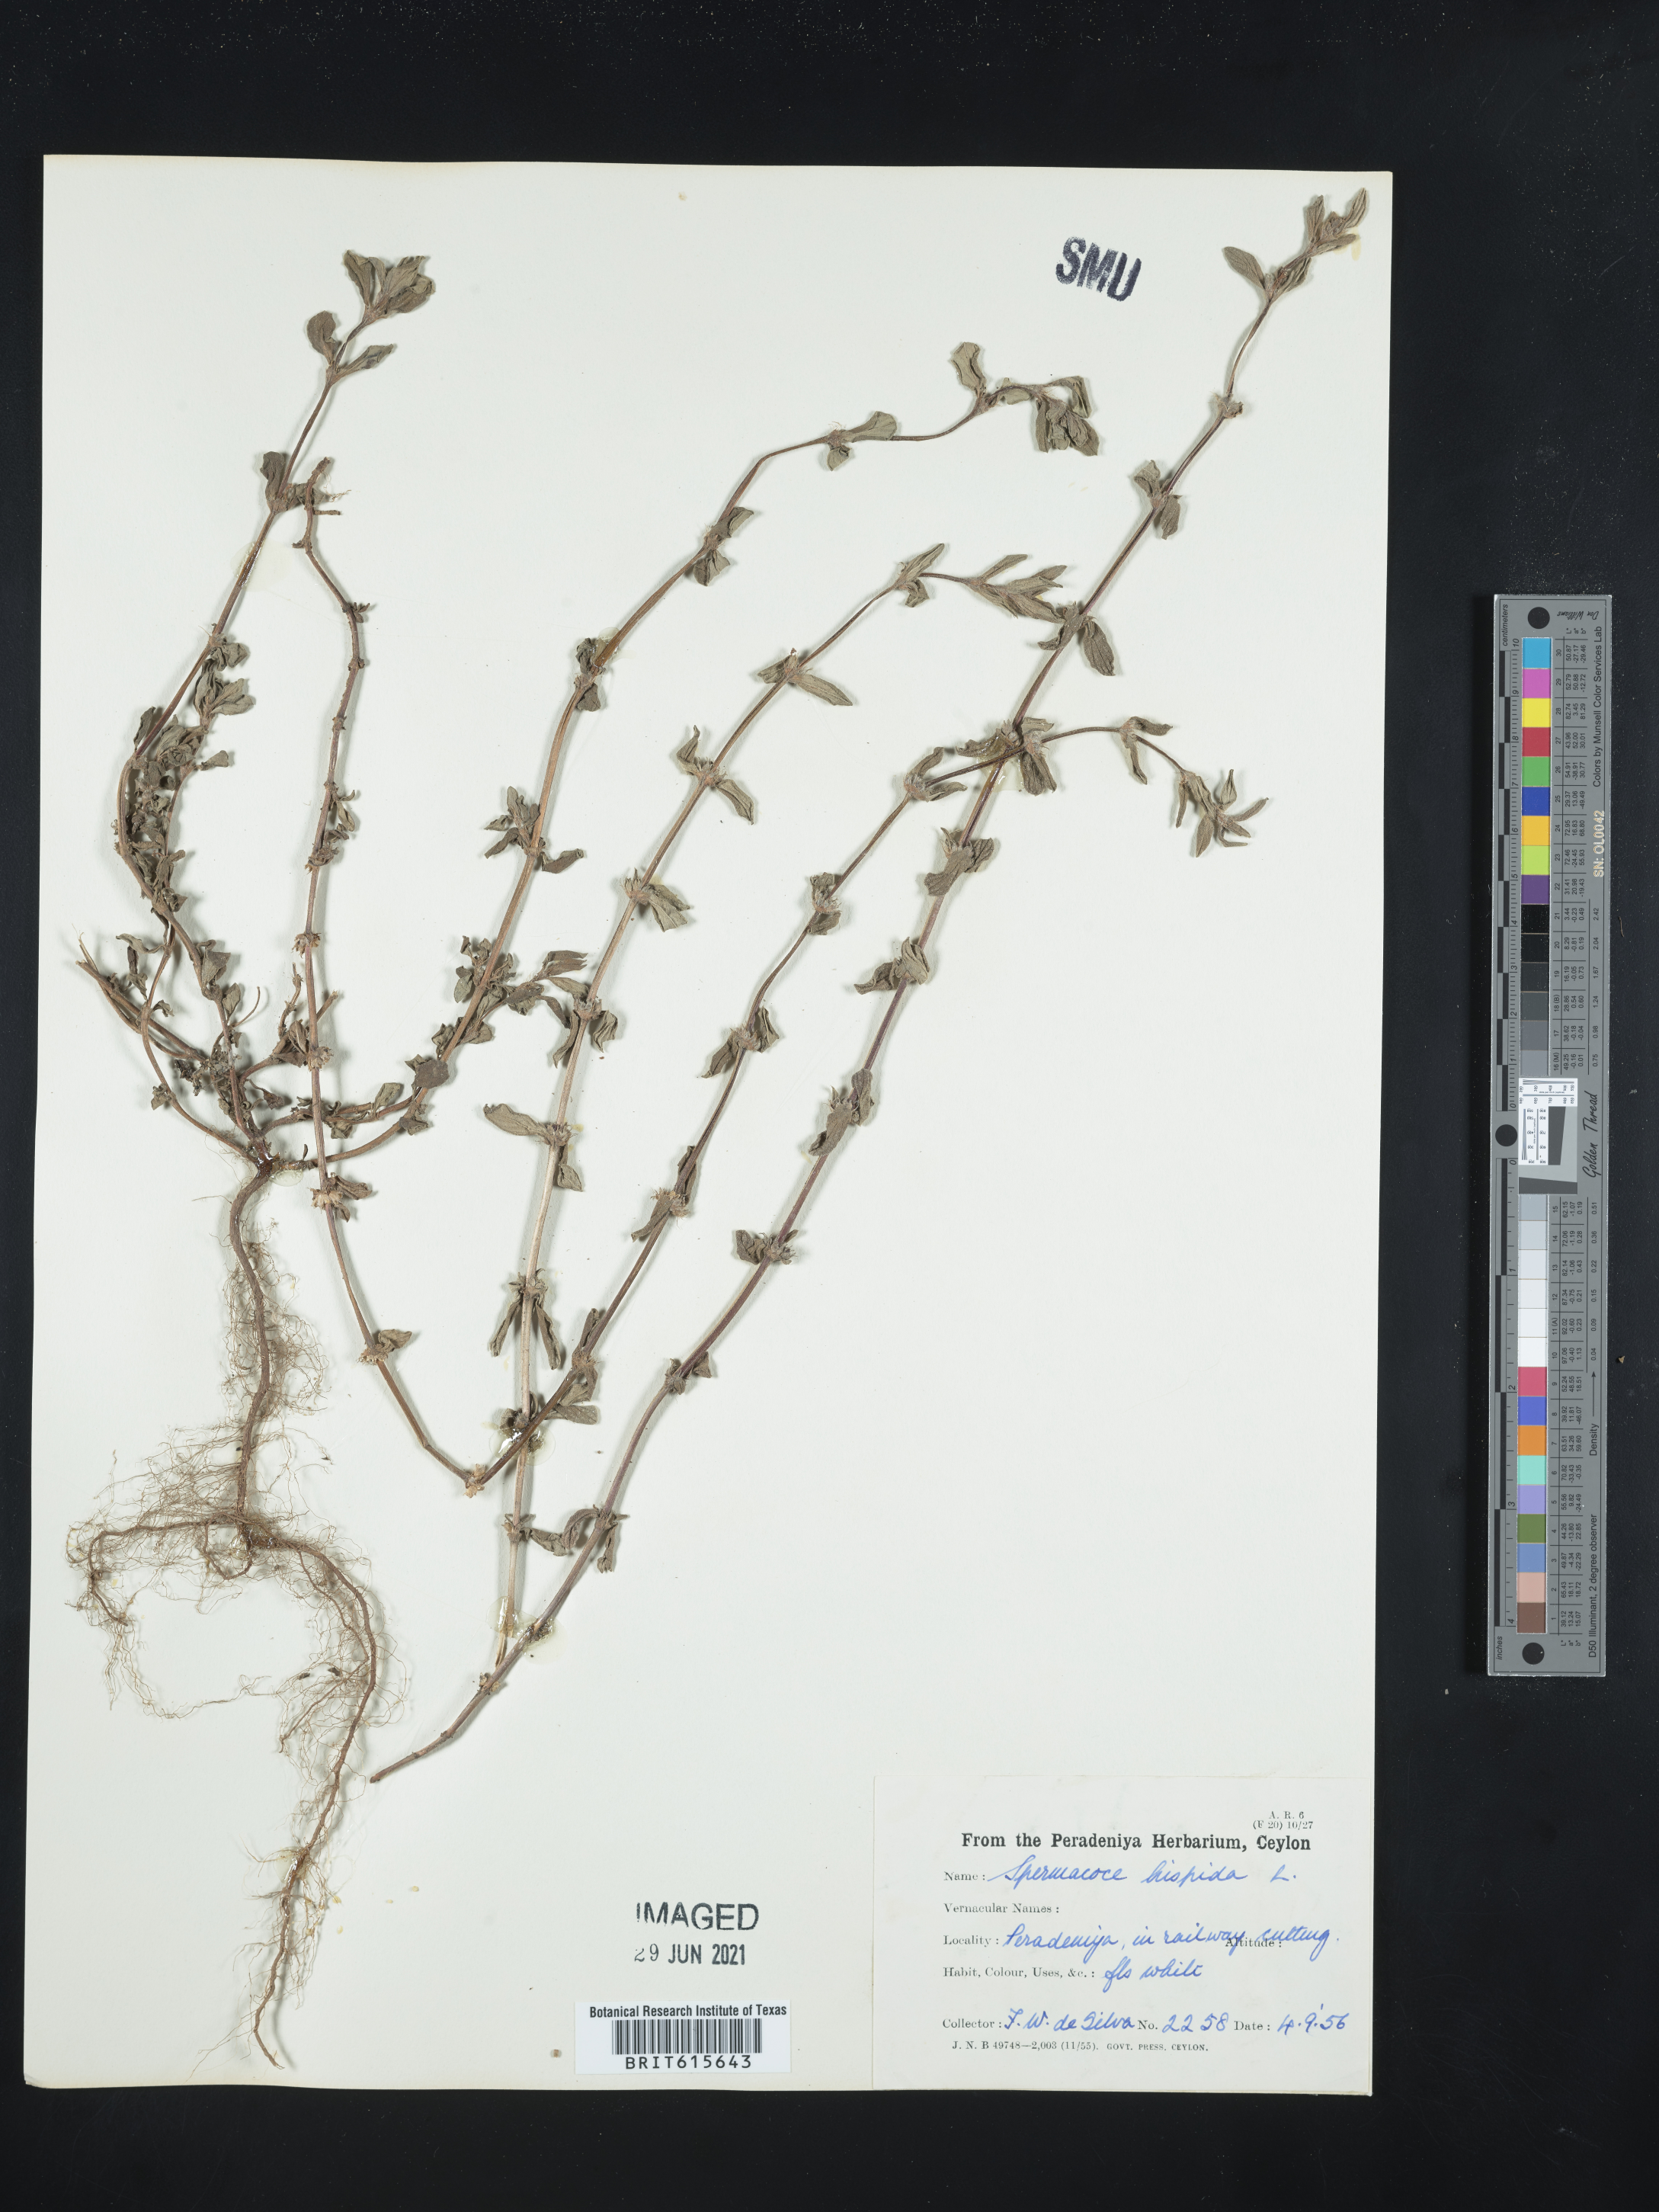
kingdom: Plantae
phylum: Tracheophyta
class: Magnoliopsida
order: Gentianales
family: Rubiaceae
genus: Spermacoce
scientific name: Spermacoce hispida
